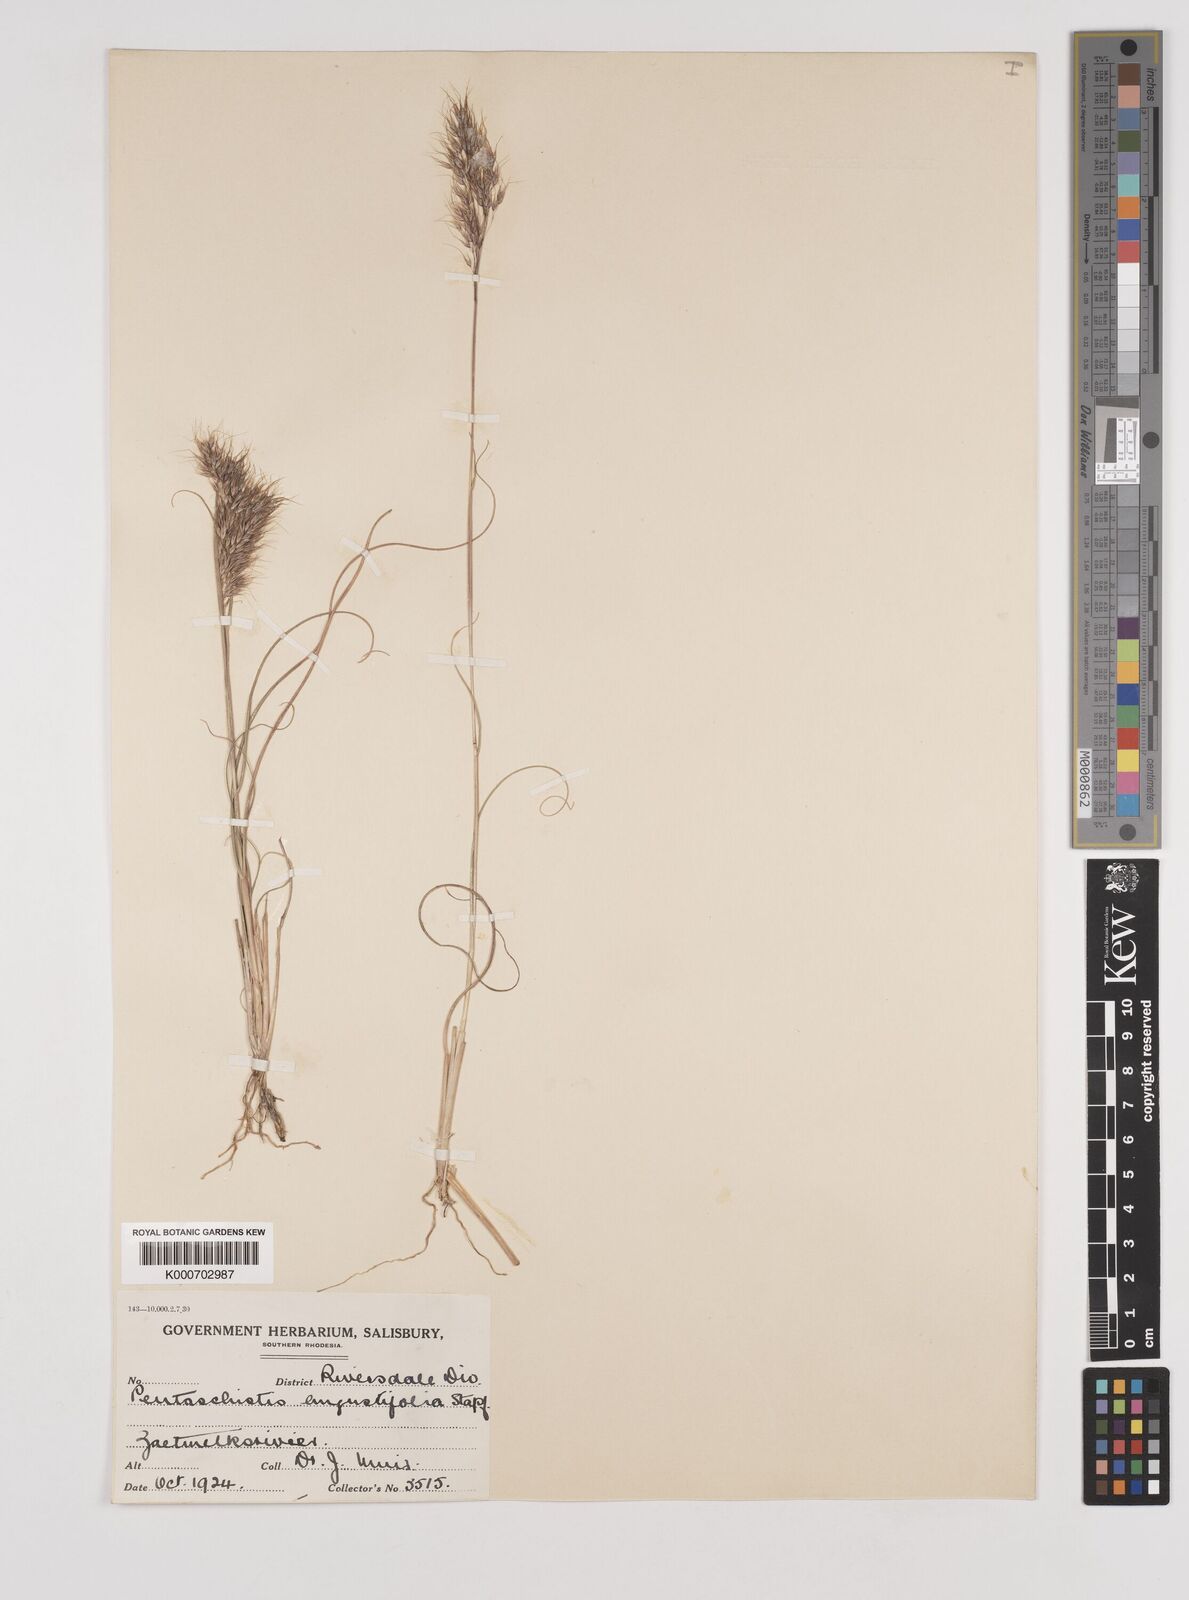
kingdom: Plantae
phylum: Tracheophyta
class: Liliopsida
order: Poales
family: Poaceae
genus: Pentameris
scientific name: Pentameris pallida
